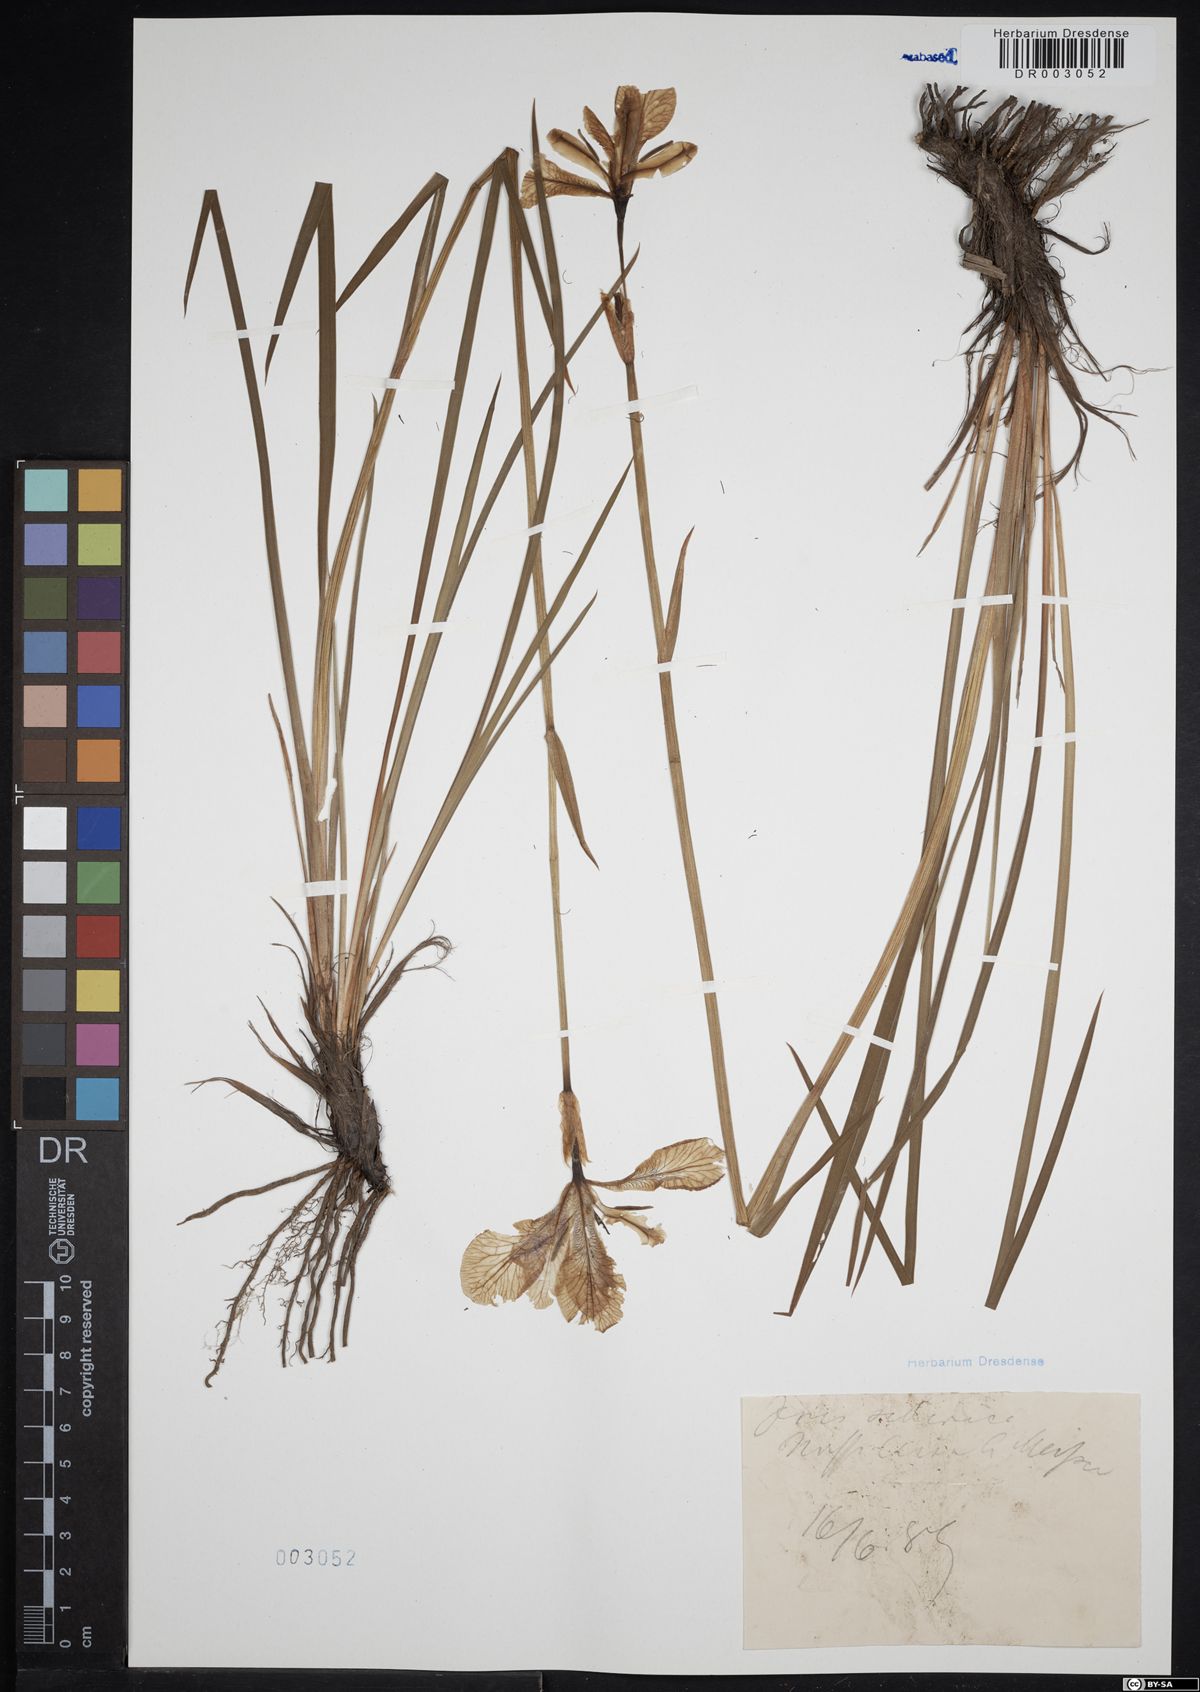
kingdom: Plantae
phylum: Tracheophyta
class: Liliopsida
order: Asparagales
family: Iridaceae
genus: Iris
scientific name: Iris sibirica
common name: Siberian iris
